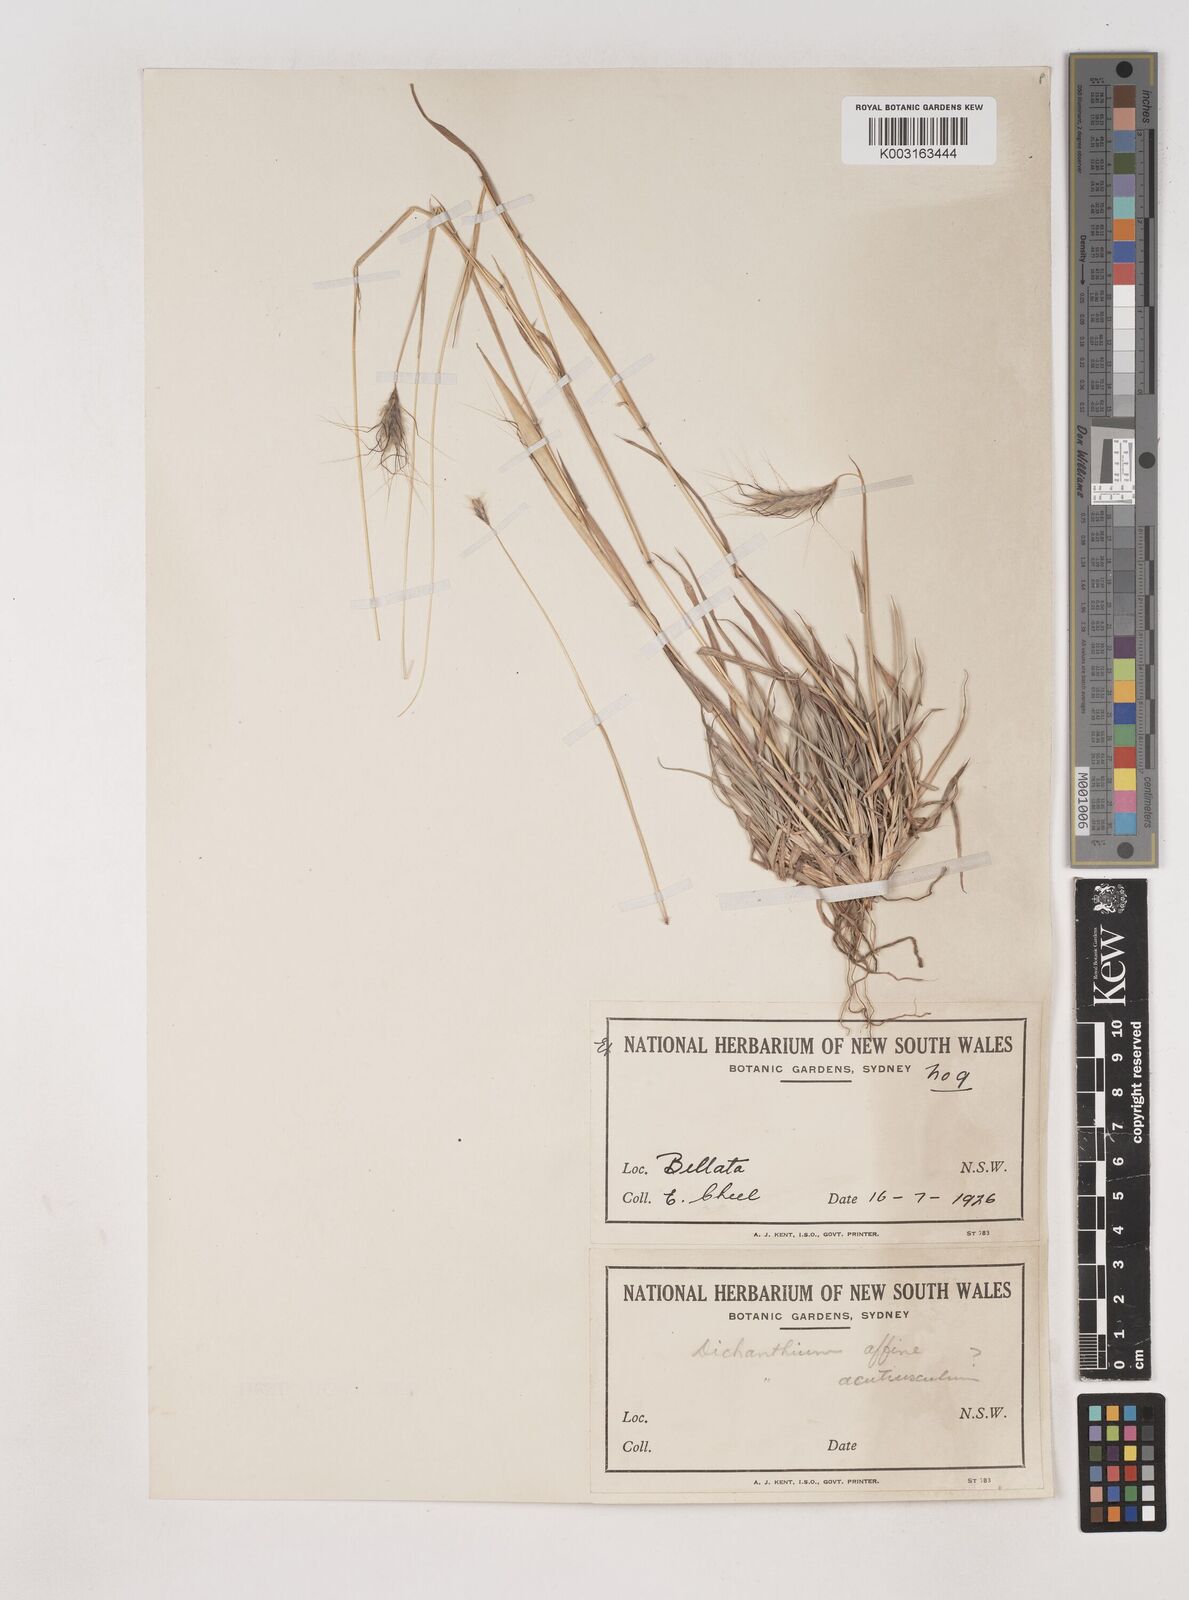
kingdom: Plantae
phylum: Tracheophyta
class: Liliopsida
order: Poales
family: Poaceae
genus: Dichanthium
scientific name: Dichanthium sericeum
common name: Silky bluestem
